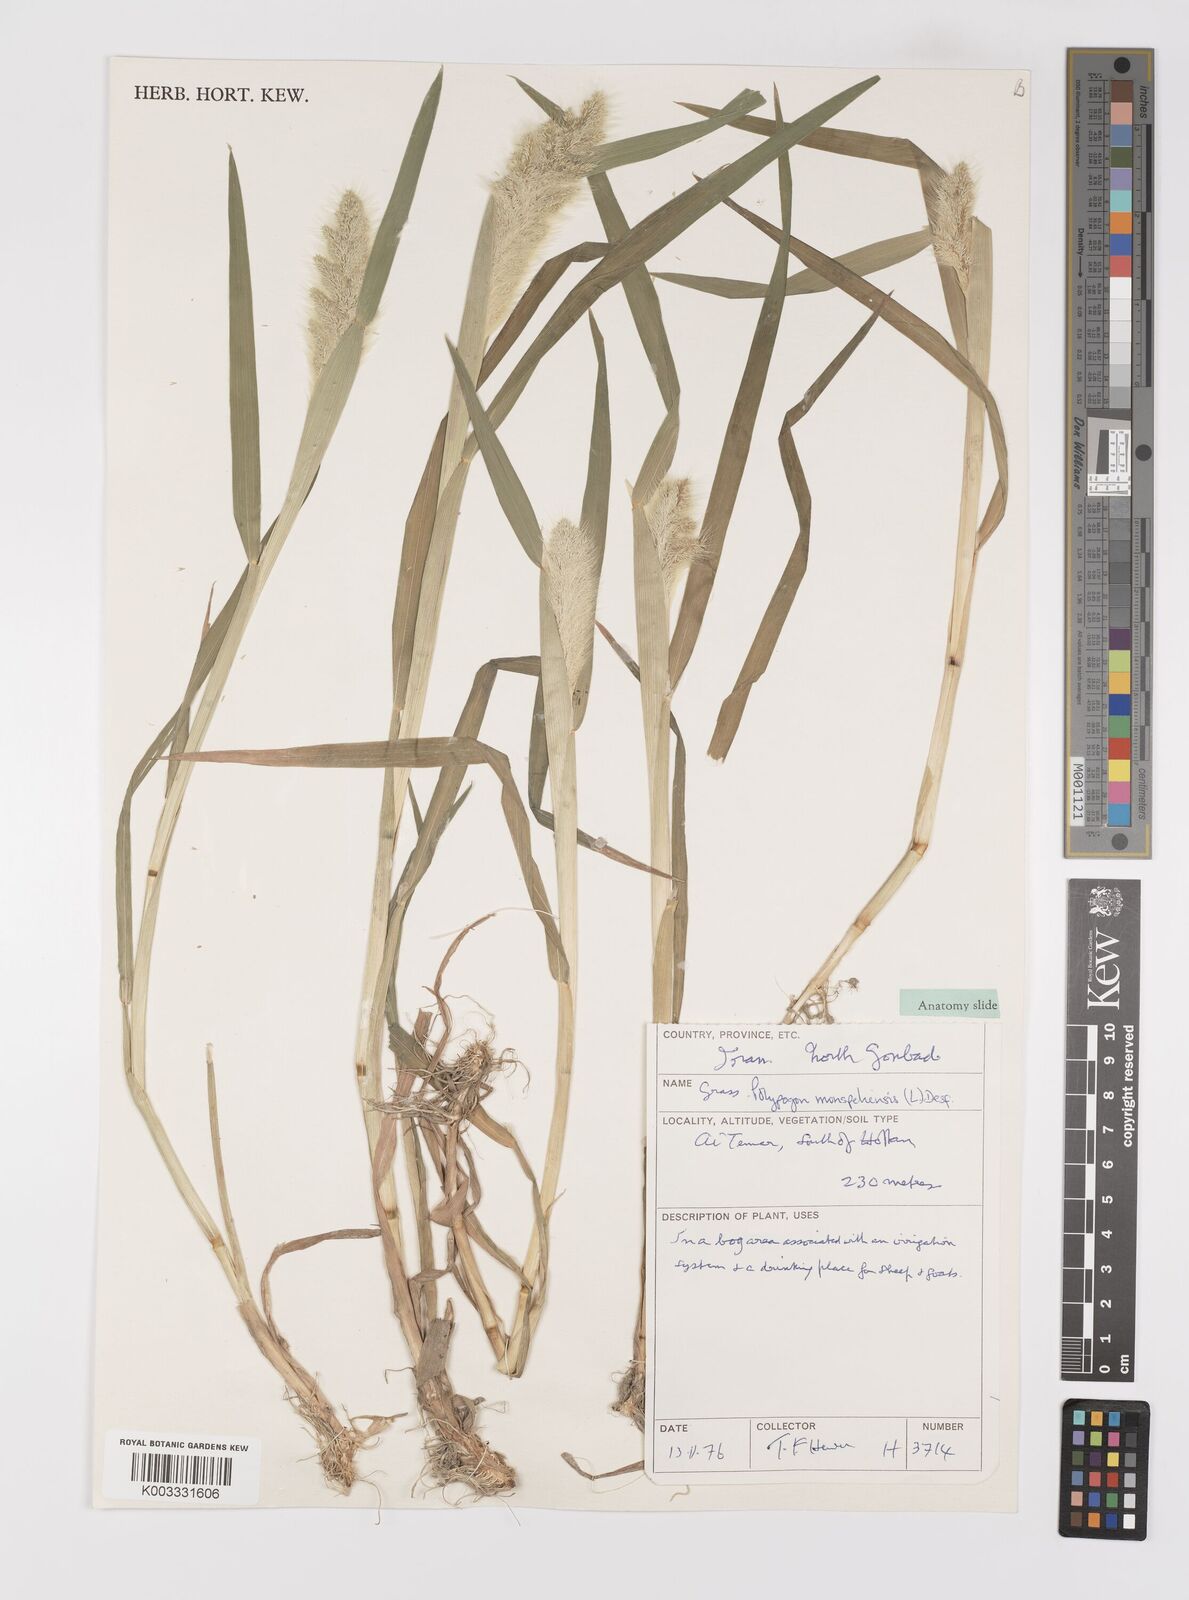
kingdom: Plantae
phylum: Tracheophyta
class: Liliopsida
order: Poales
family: Poaceae
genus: Polypogon
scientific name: Polypogon monspeliensis
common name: Annual rabbitsfoot grass
